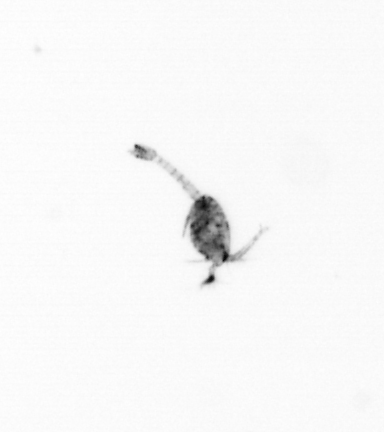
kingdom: Animalia
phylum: Arthropoda
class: Copepoda
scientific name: Copepoda
